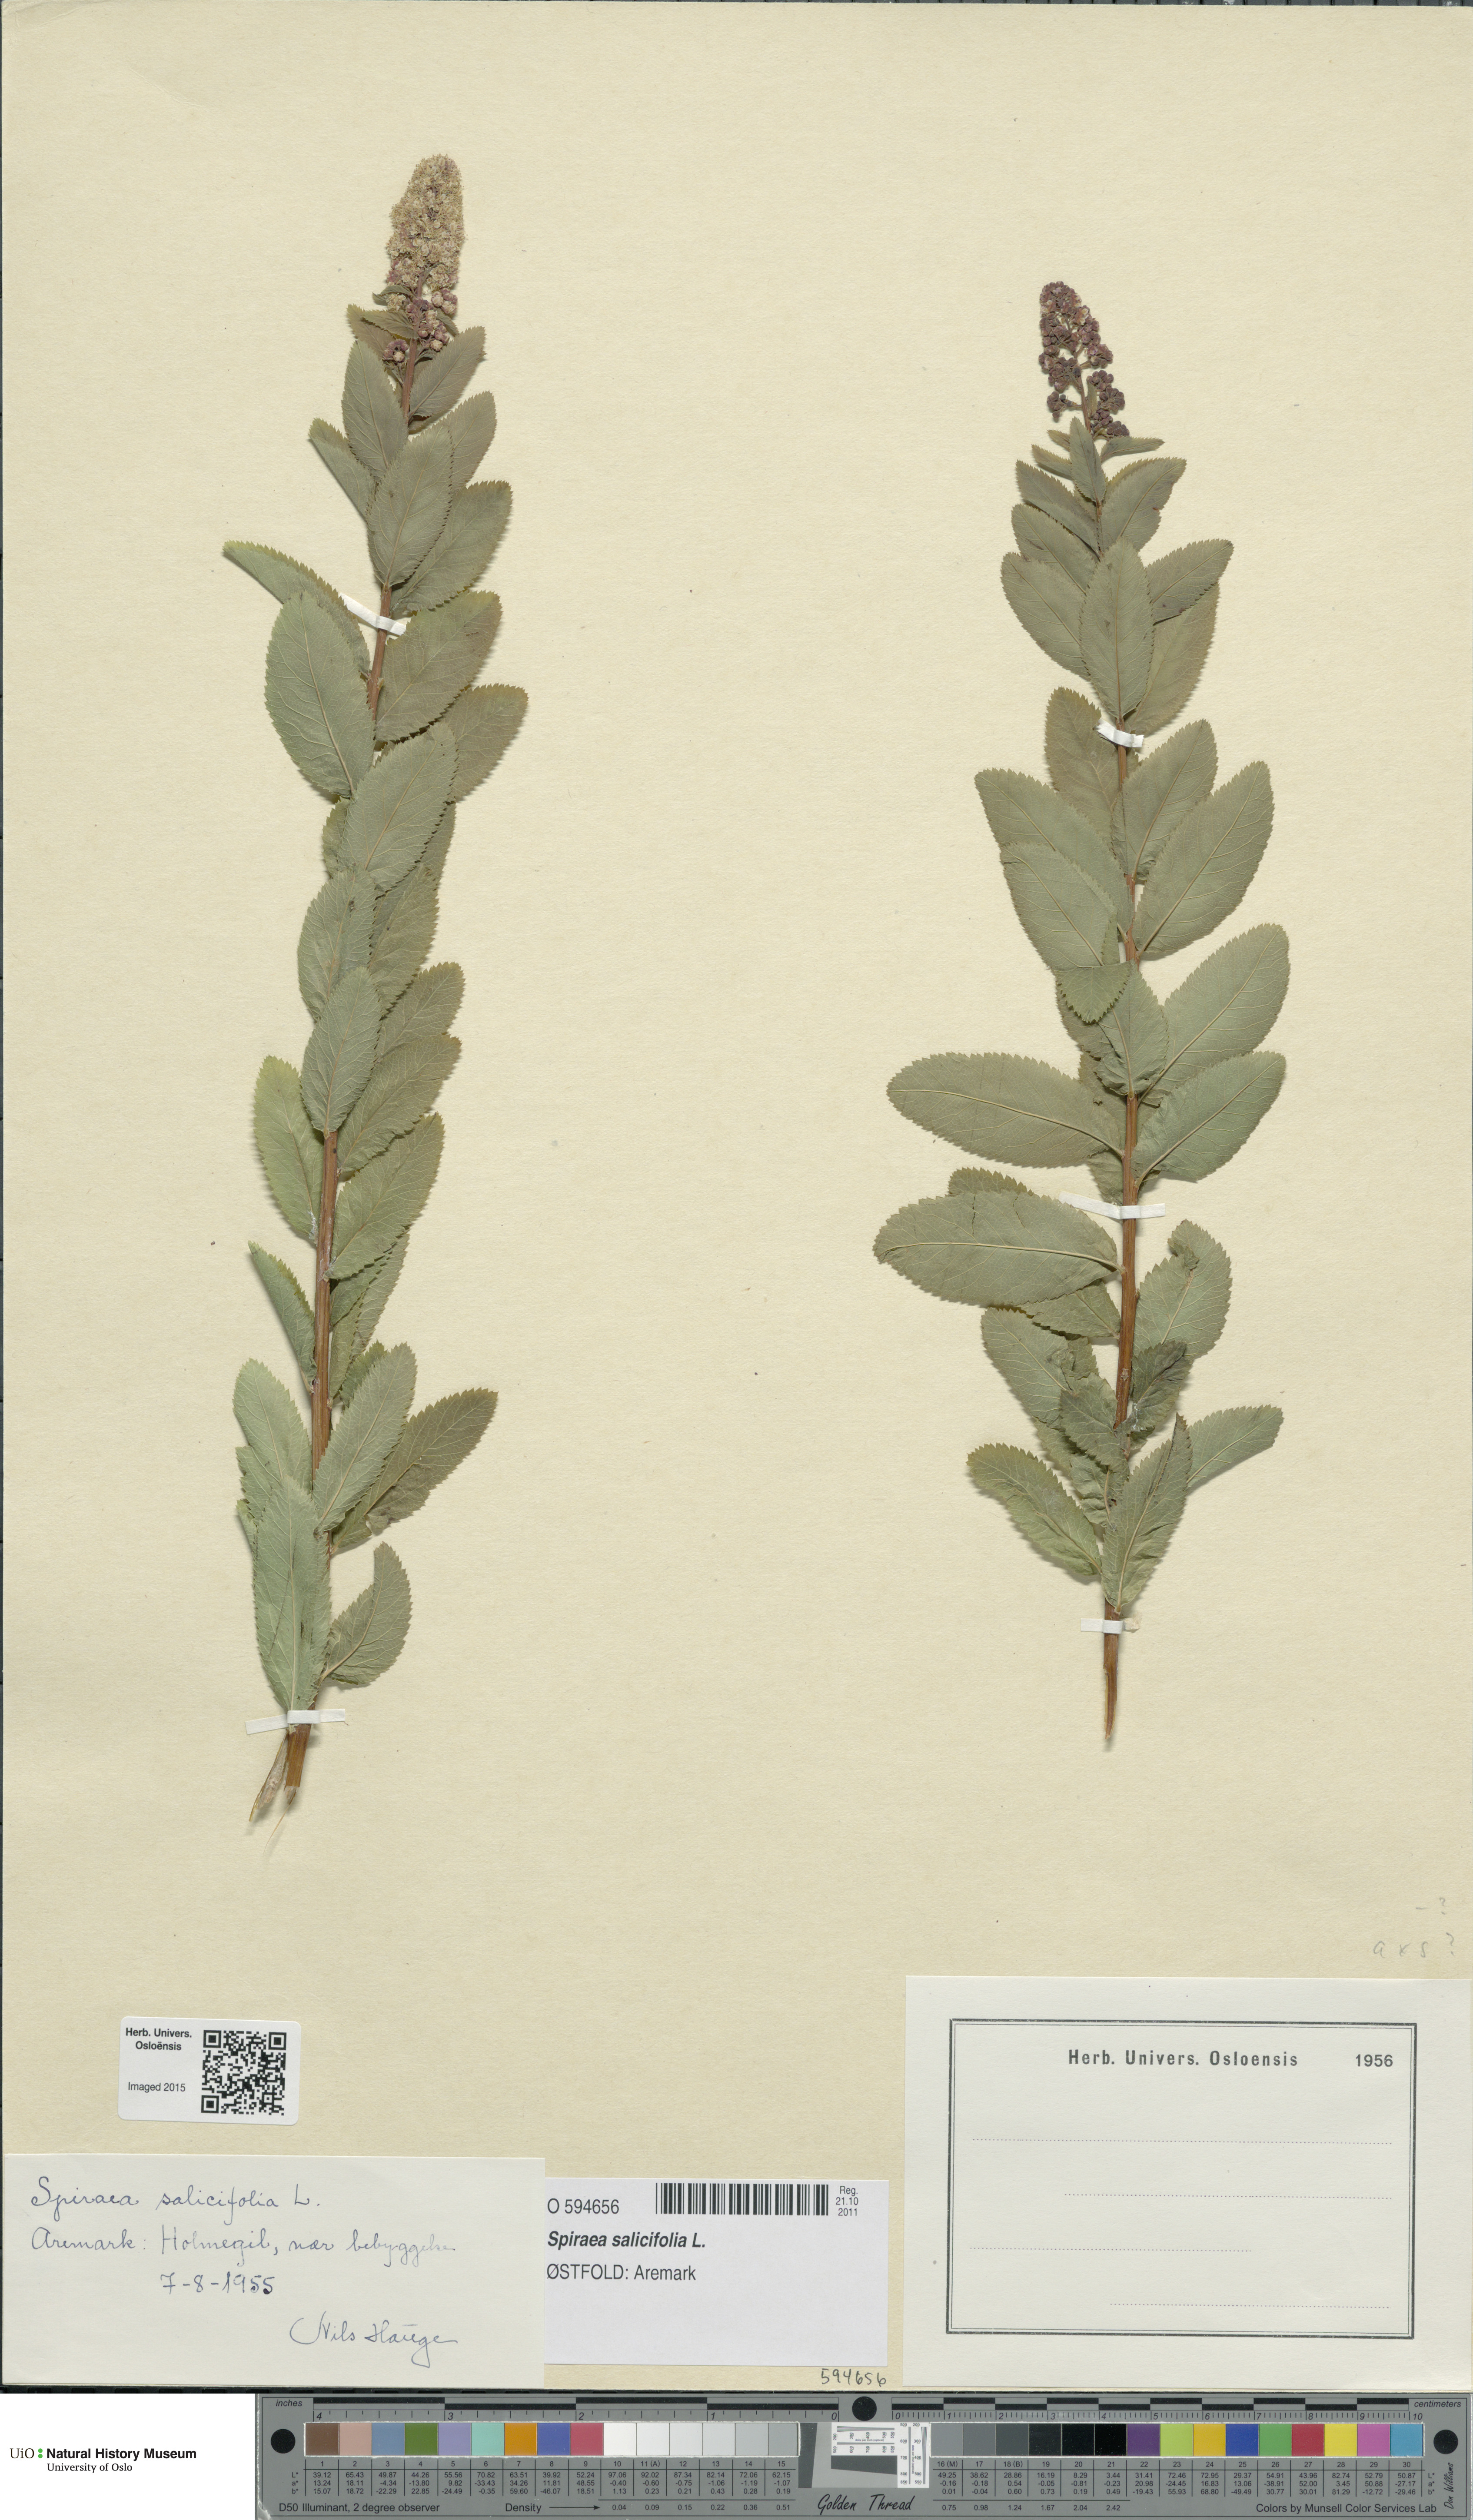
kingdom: Plantae
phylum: Tracheophyta
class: Magnoliopsida
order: Rosales
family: Rosaceae
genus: Spiraea
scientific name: Spiraea salicifolia
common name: Bridewort
